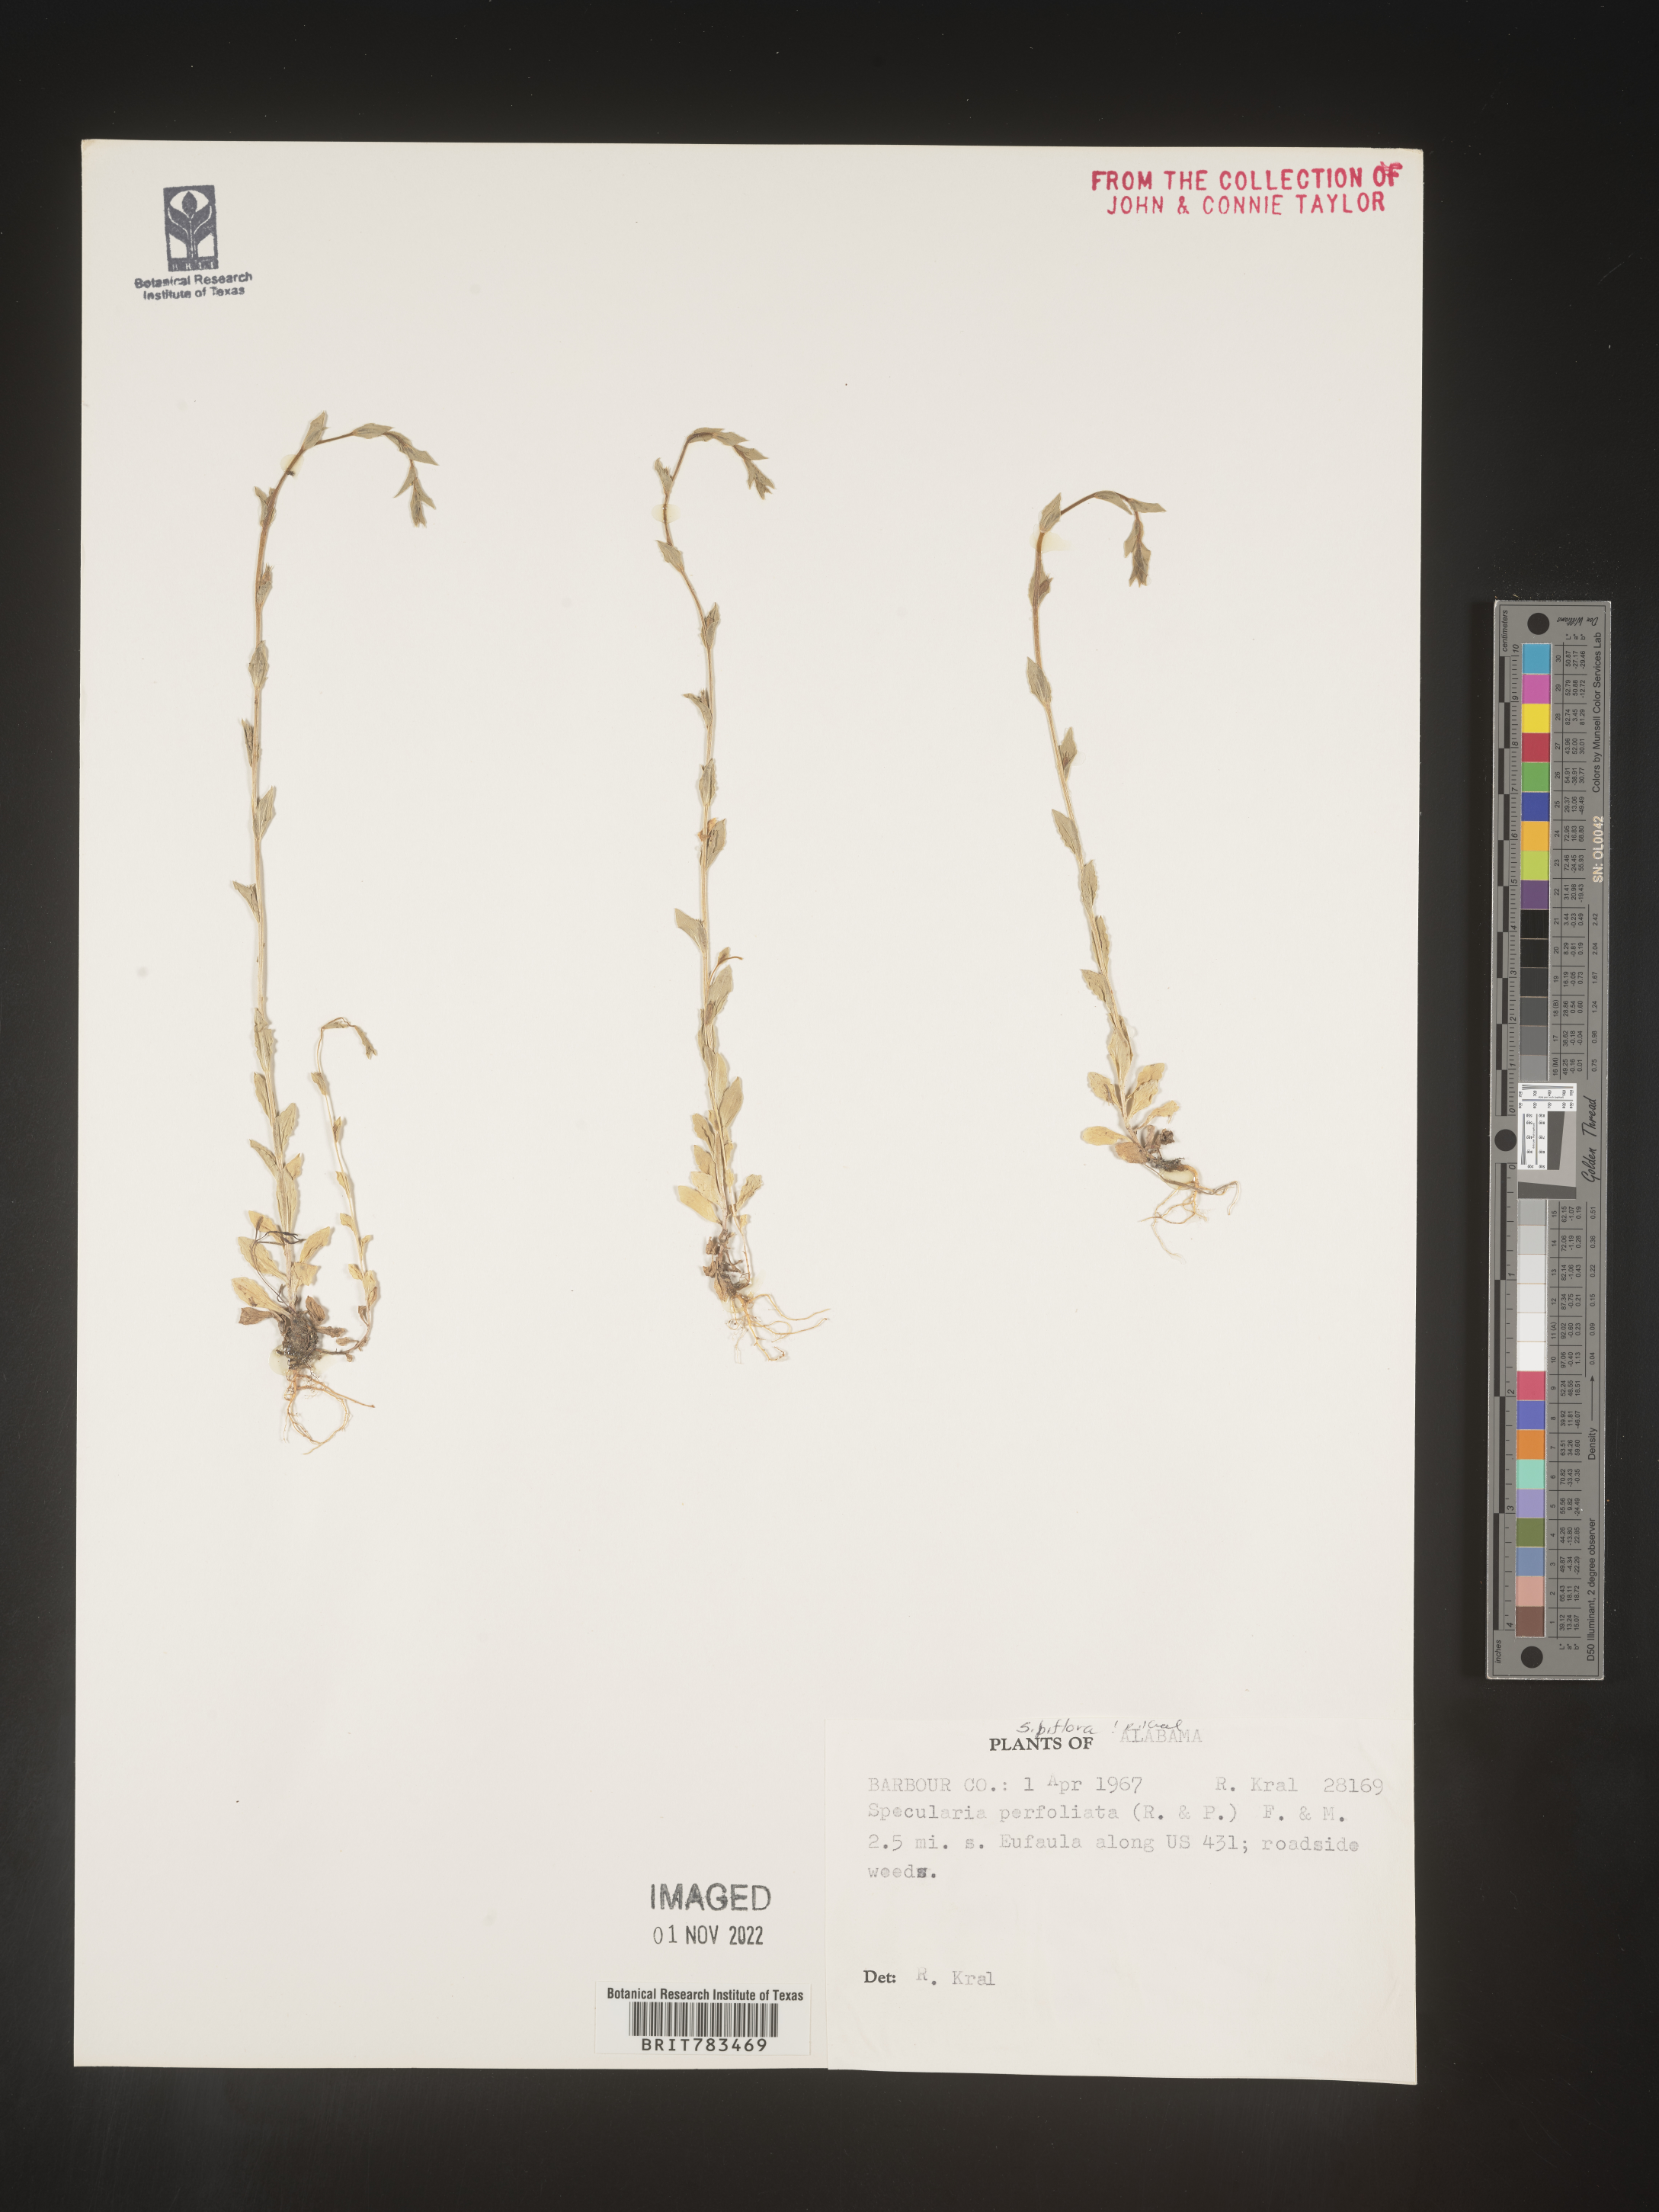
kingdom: Plantae
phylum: Tracheophyta
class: Magnoliopsida
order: Asterales
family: Campanulaceae
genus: Triodanis
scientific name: Triodanis perfoliata
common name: Clasping venus' looking-glass
